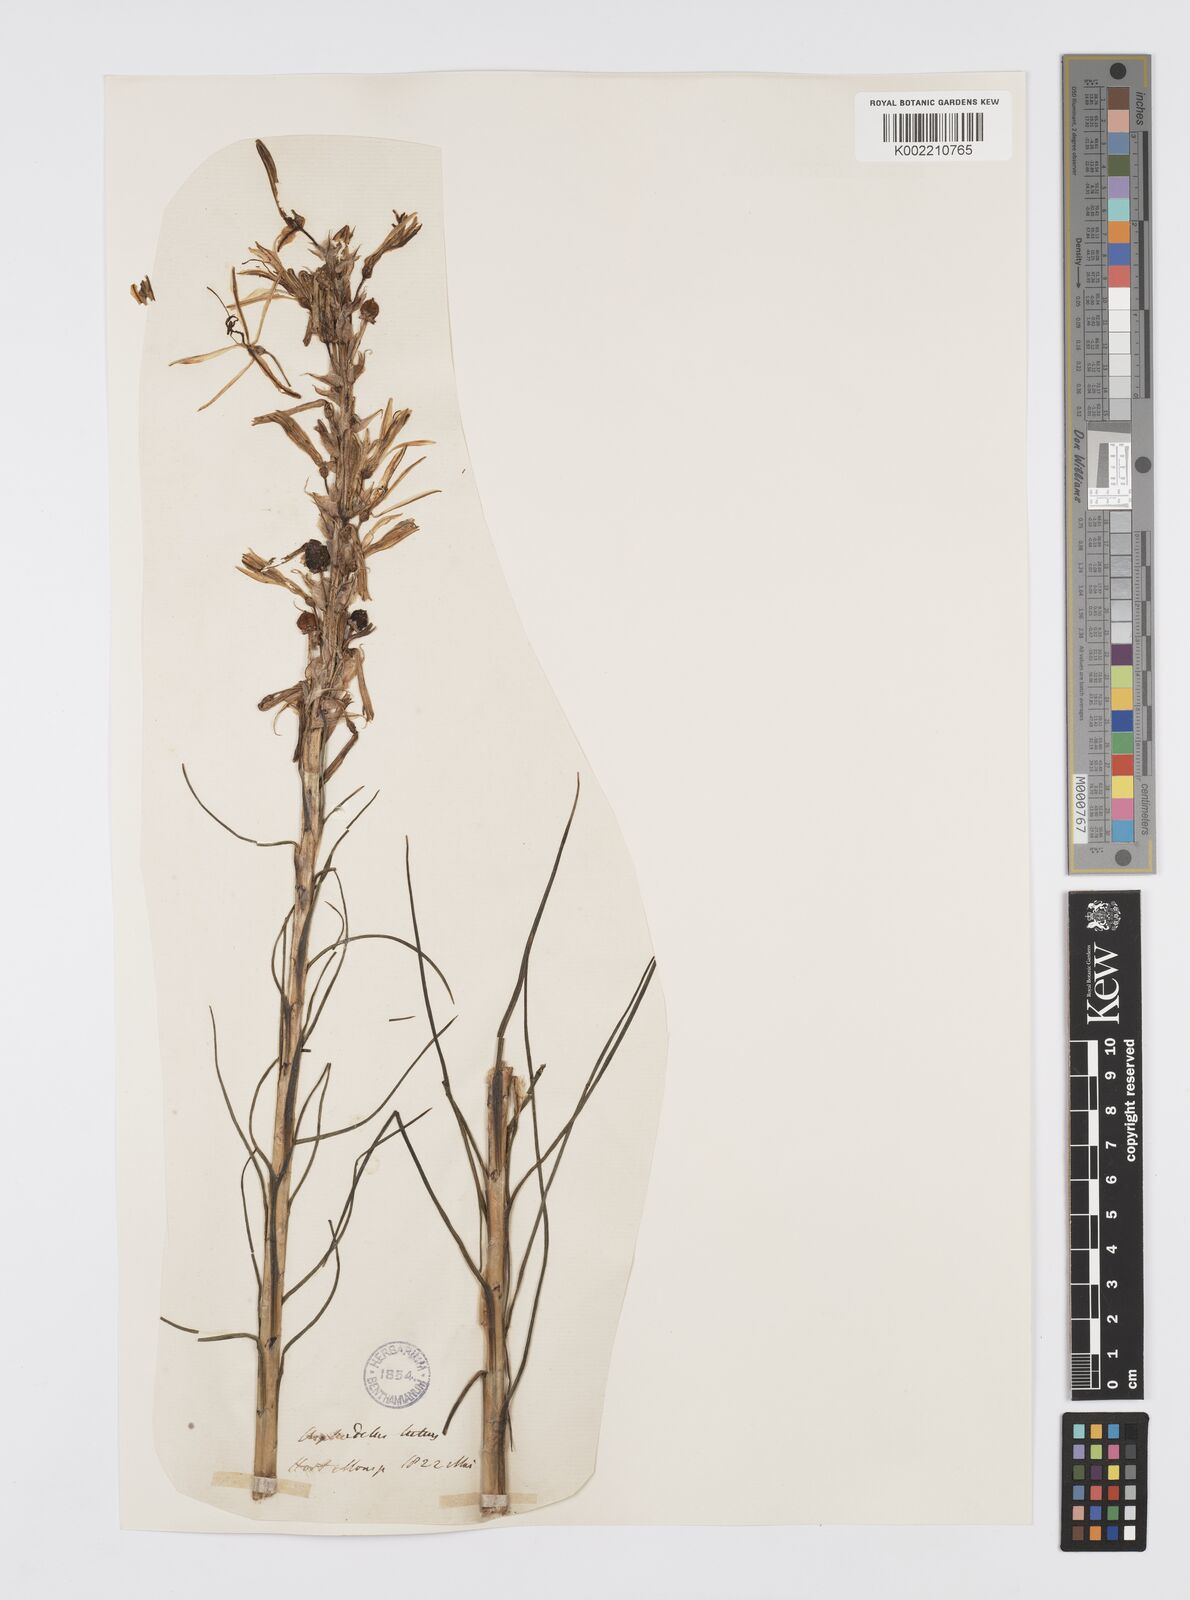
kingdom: Plantae
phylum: Tracheophyta
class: Liliopsida
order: Asparagales
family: Asphodelaceae
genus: Asphodeline
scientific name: Asphodeline lutea
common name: Yellow asphodel
